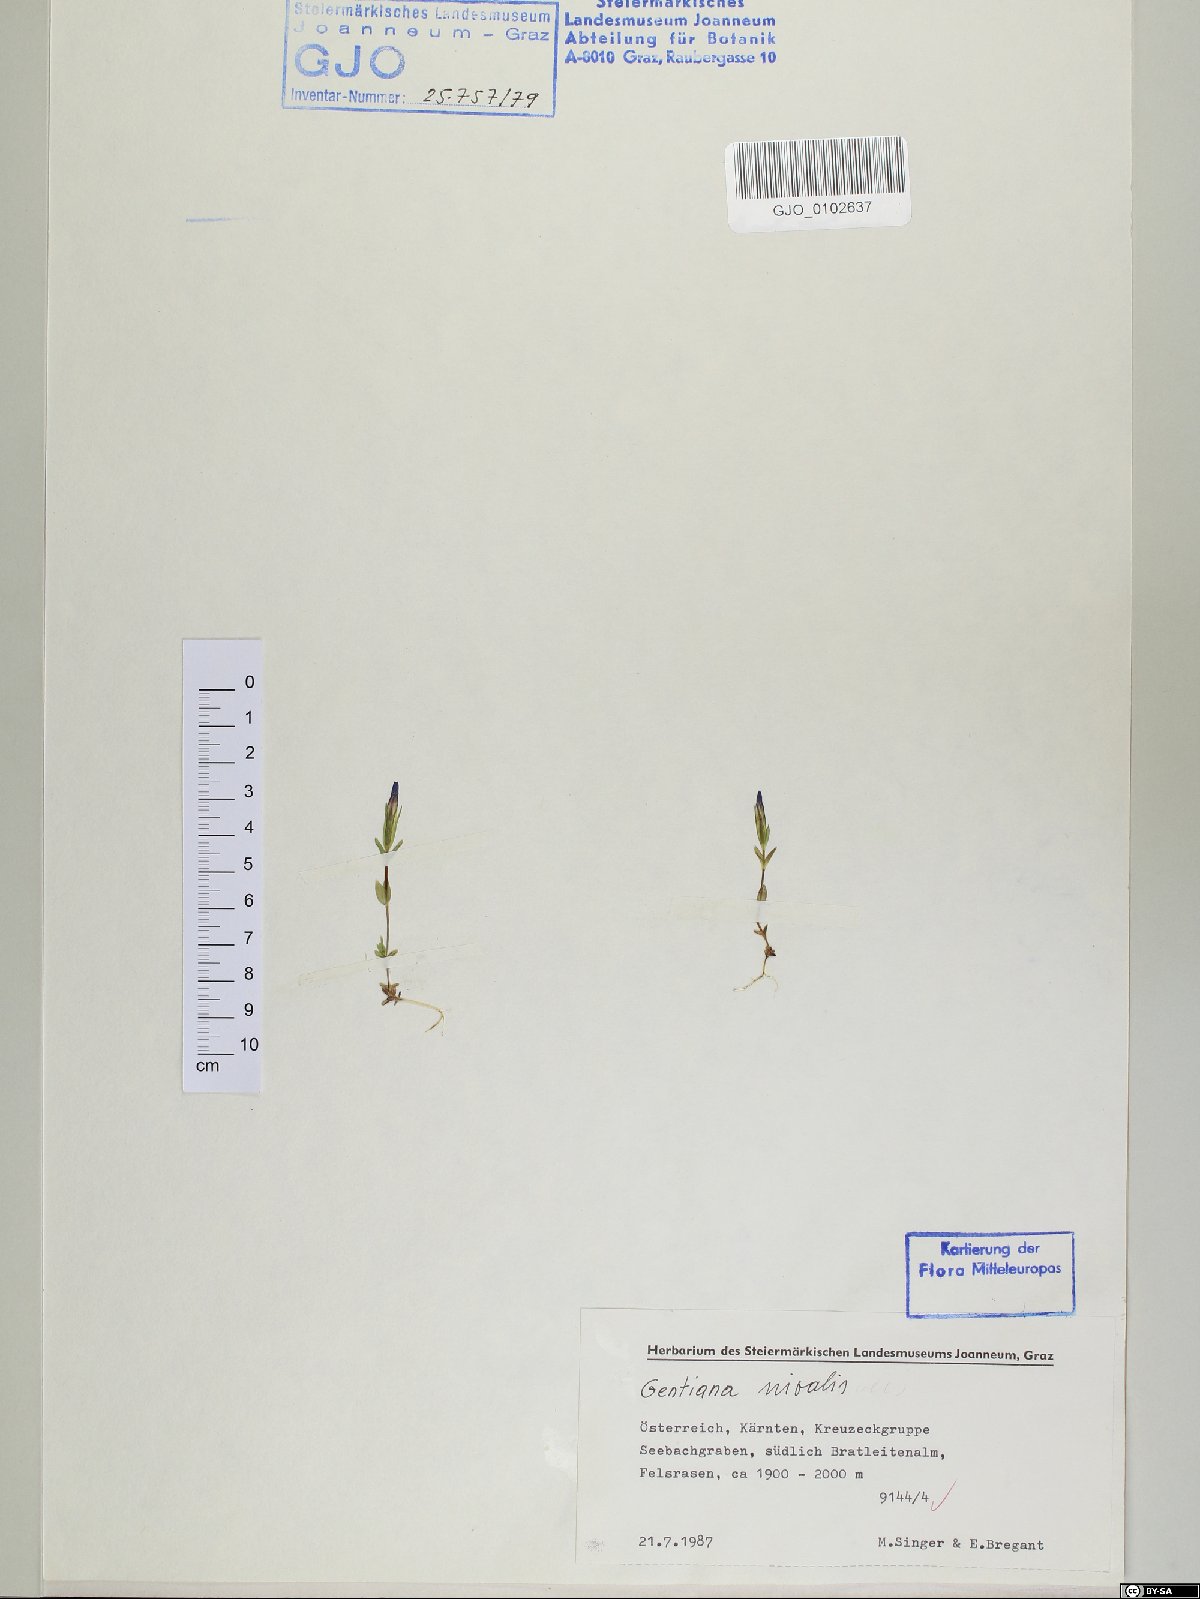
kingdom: Plantae
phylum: Tracheophyta
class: Magnoliopsida
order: Gentianales
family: Gentianaceae
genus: Gentiana
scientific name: Gentiana nivalis
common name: Alpine gentian
